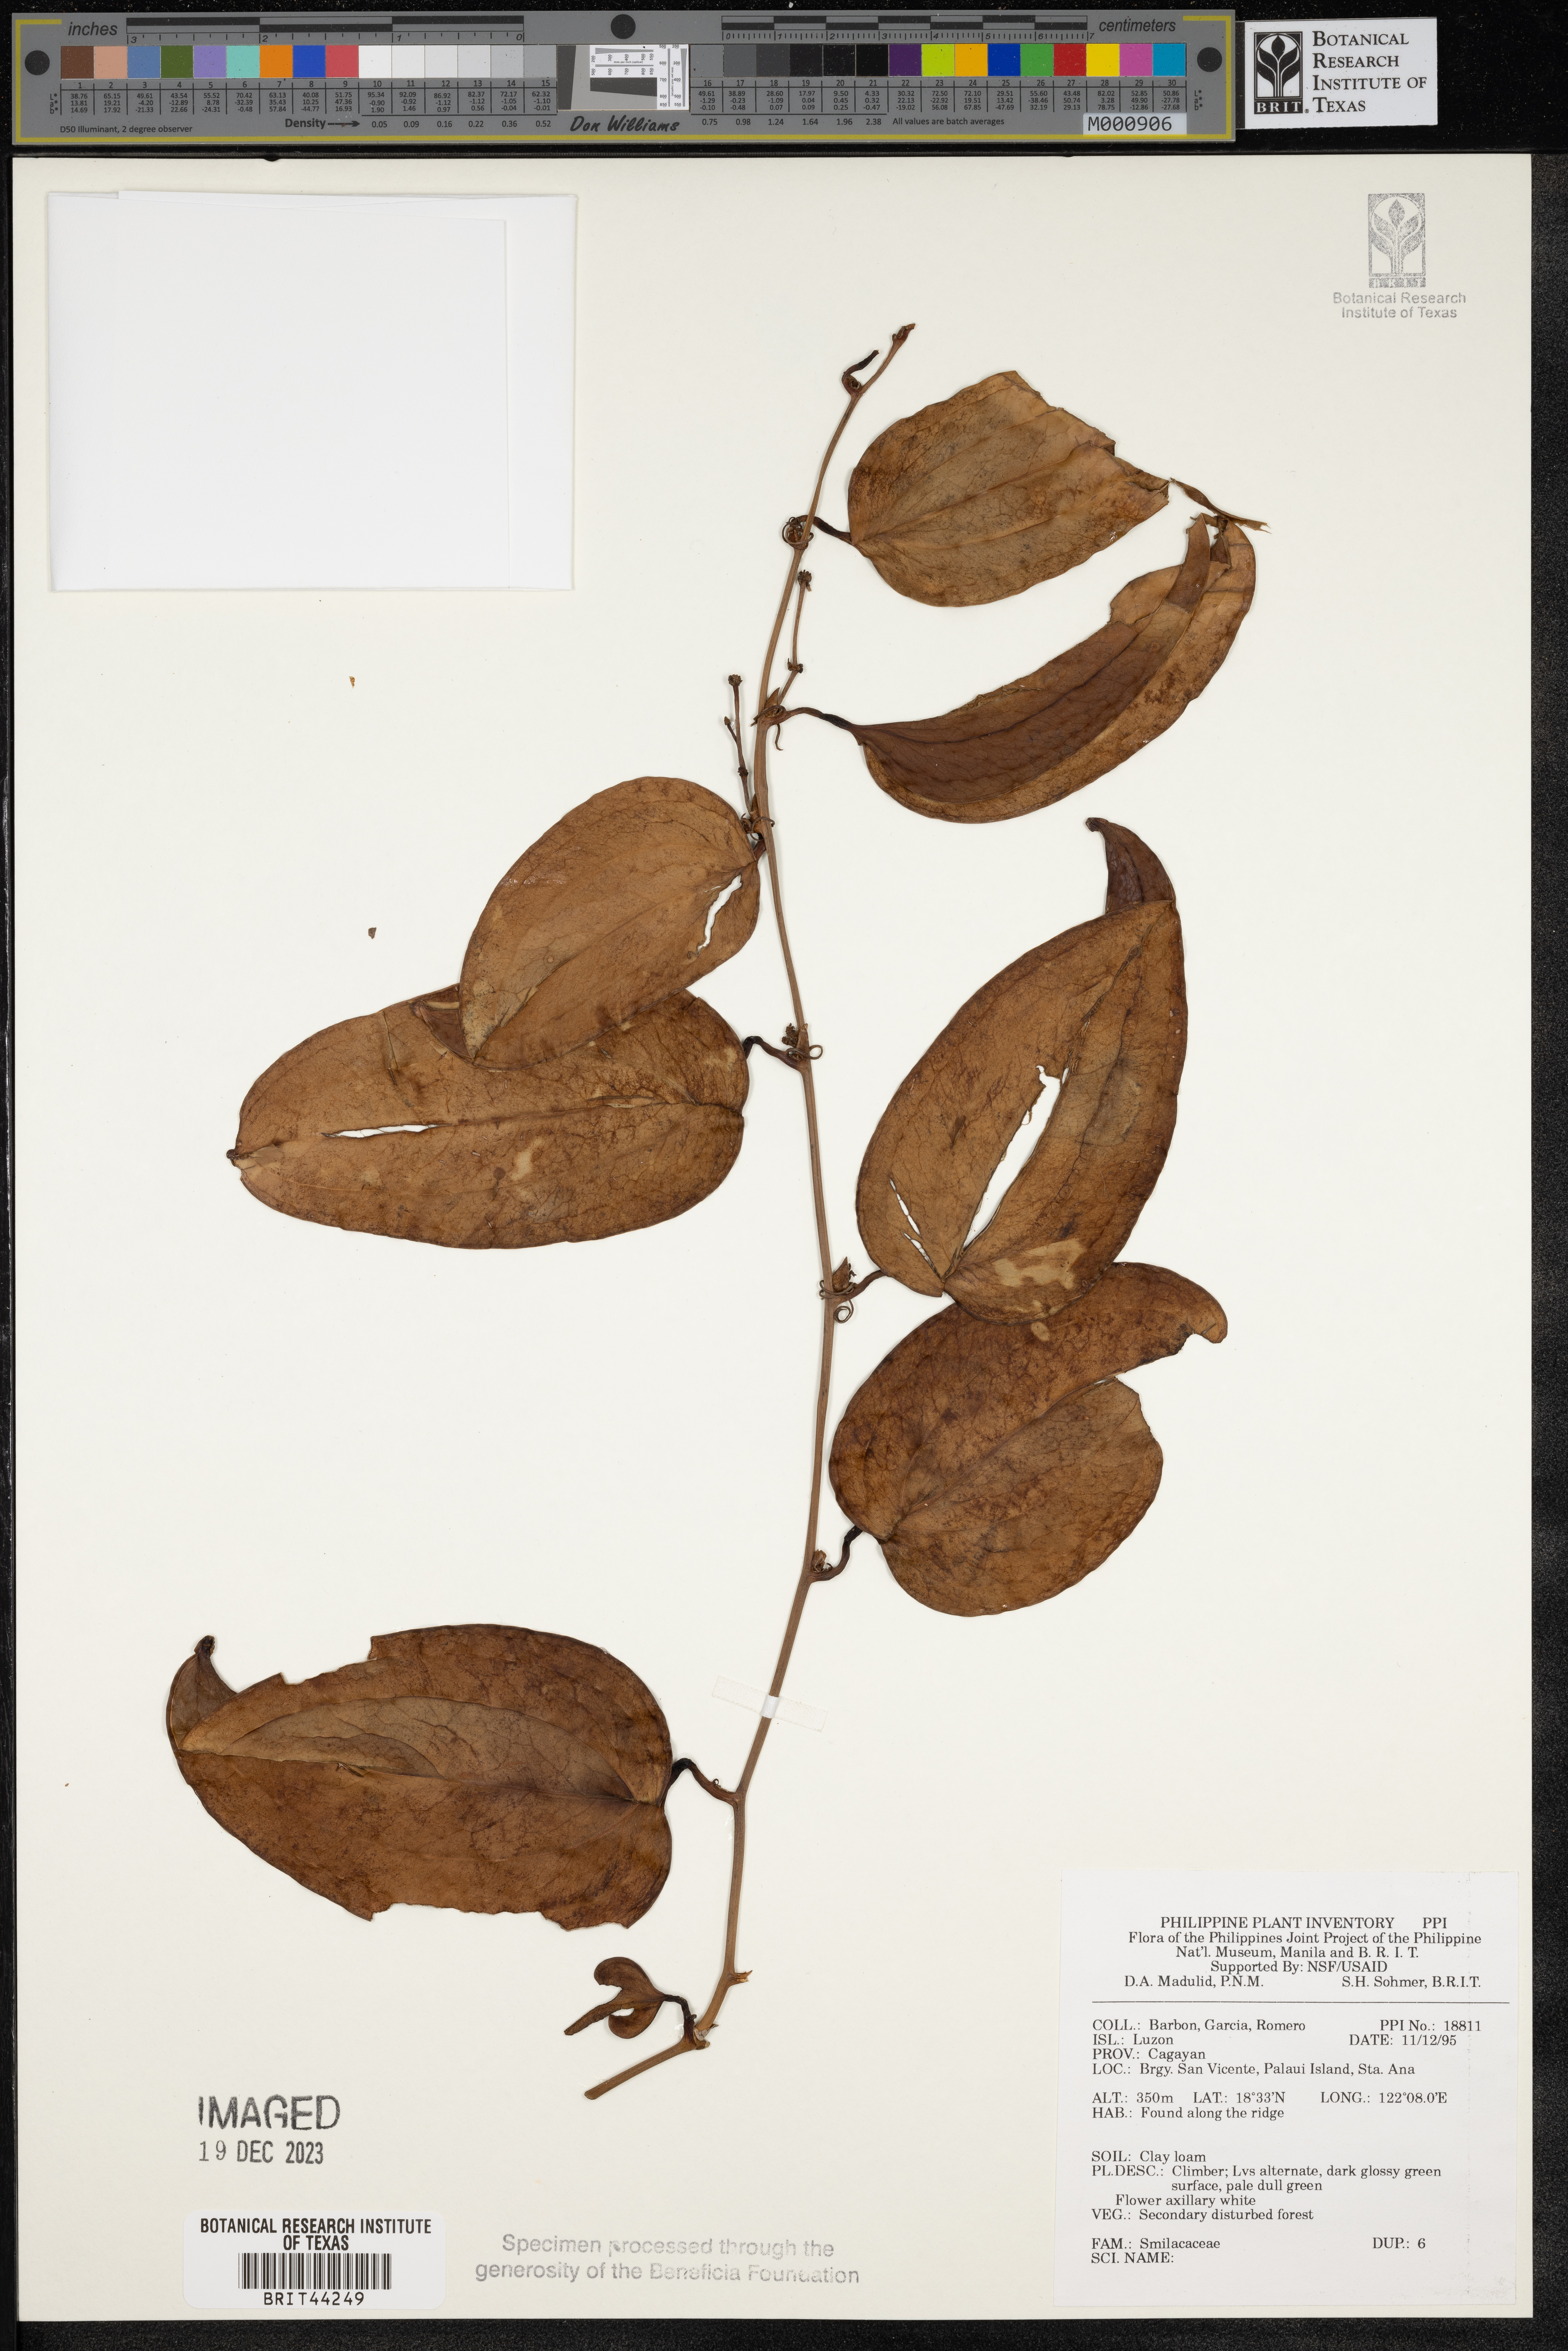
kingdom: Plantae
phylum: Tracheophyta
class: Liliopsida
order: Liliales
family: Smilacaceae
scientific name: Smilacaceae
